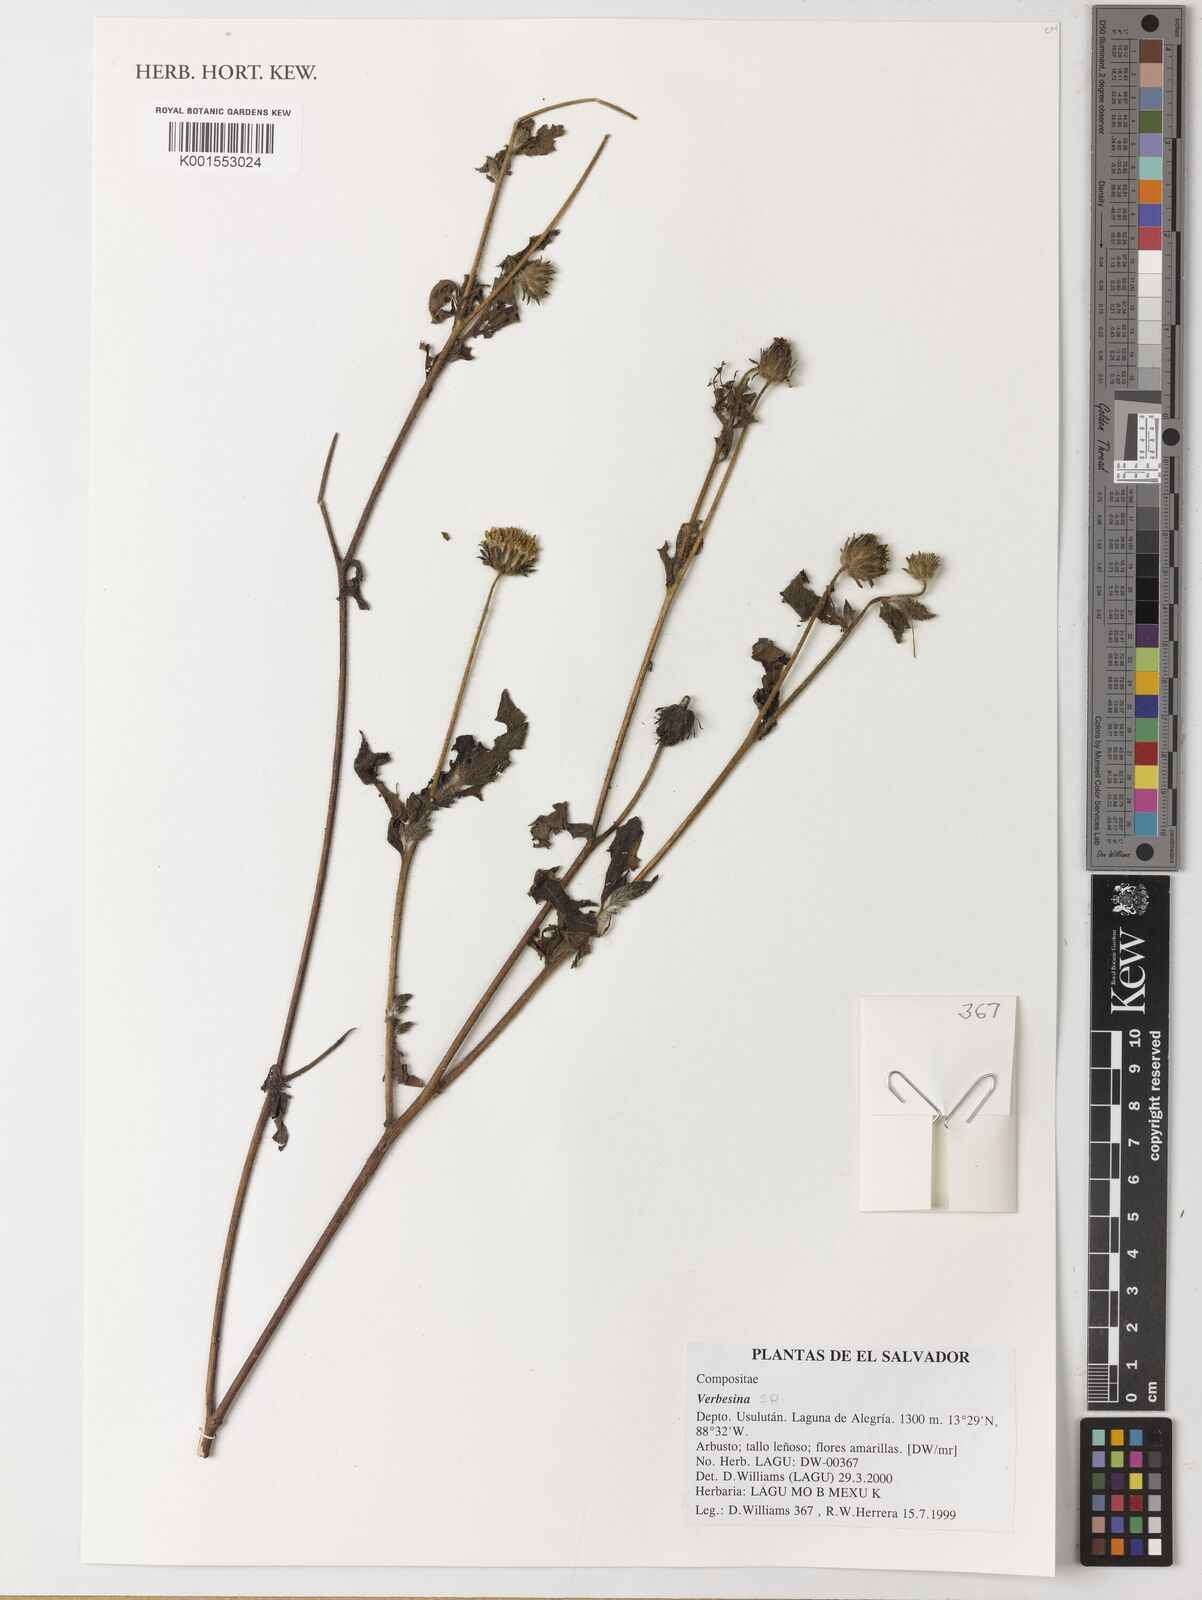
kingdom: Plantae
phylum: Tracheophyta
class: Magnoliopsida
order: Asterales
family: Asteraceae
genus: Verbesina
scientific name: Verbesina
